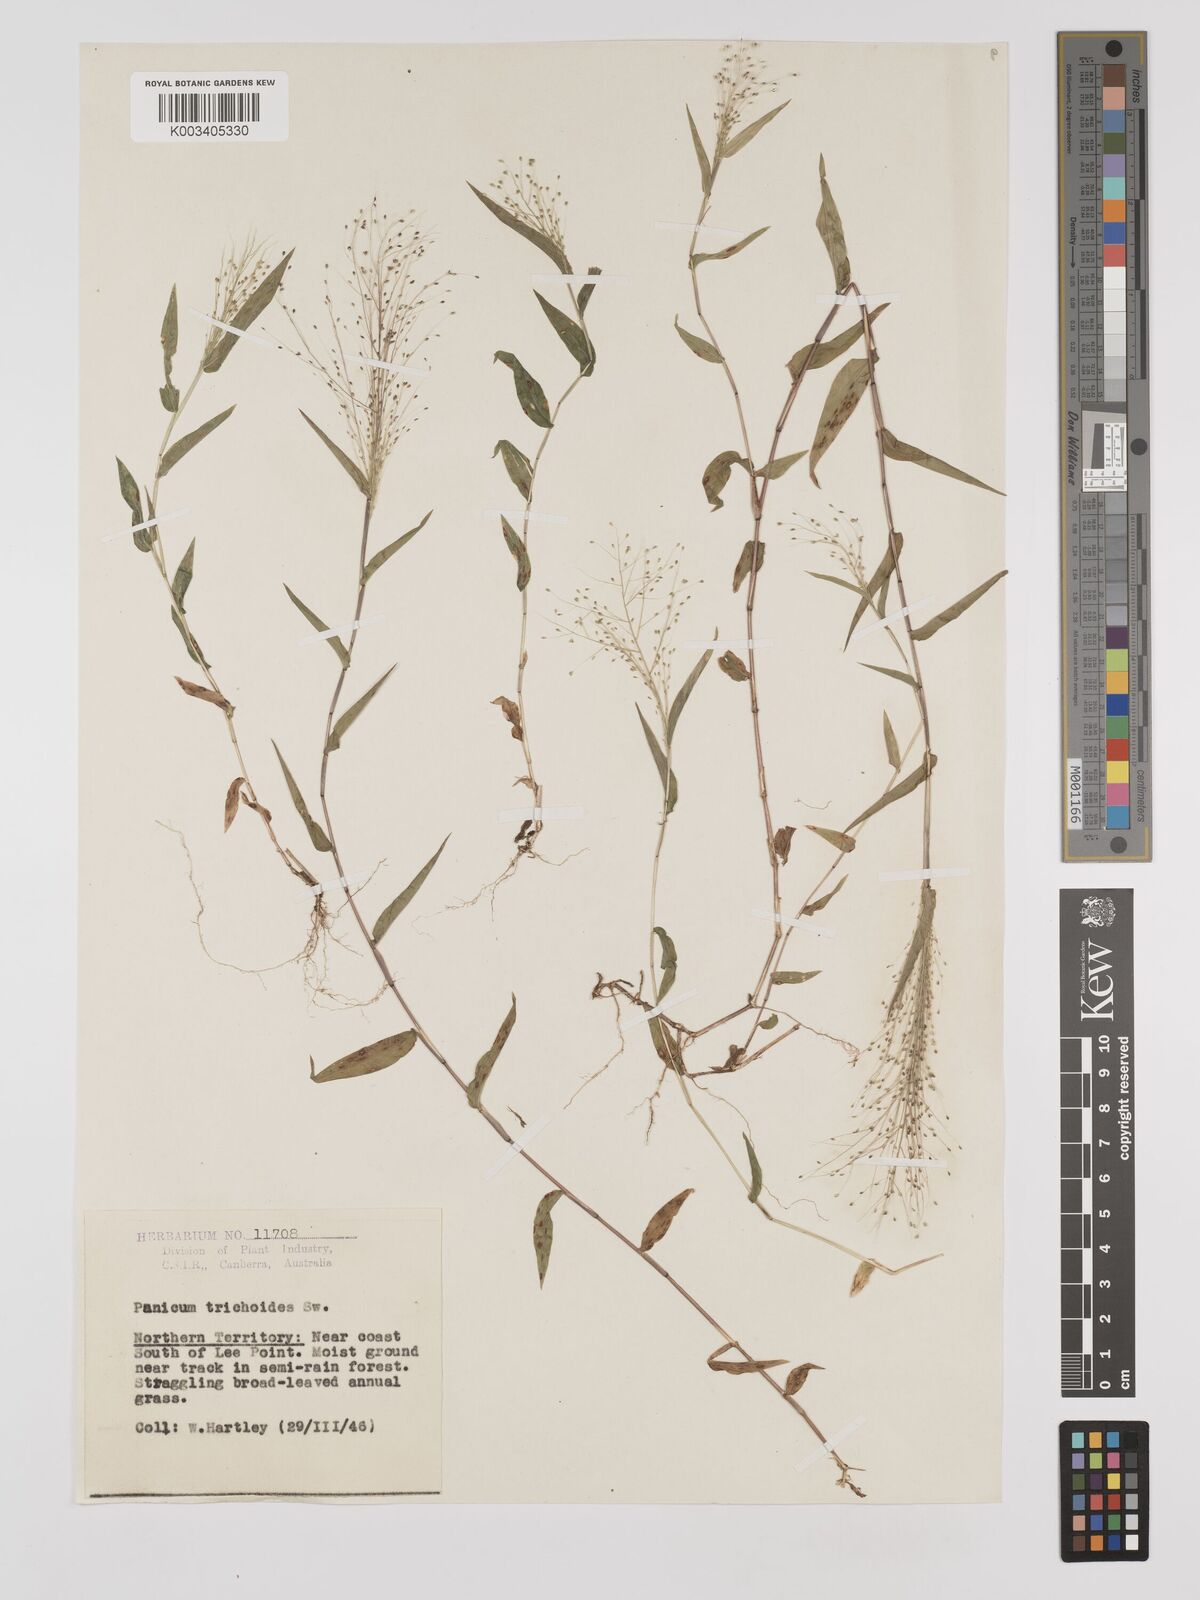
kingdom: Plantae
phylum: Tracheophyta
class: Liliopsida
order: Poales
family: Poaceae
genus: Panicum
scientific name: Panicum trichoides
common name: Tickle grass
